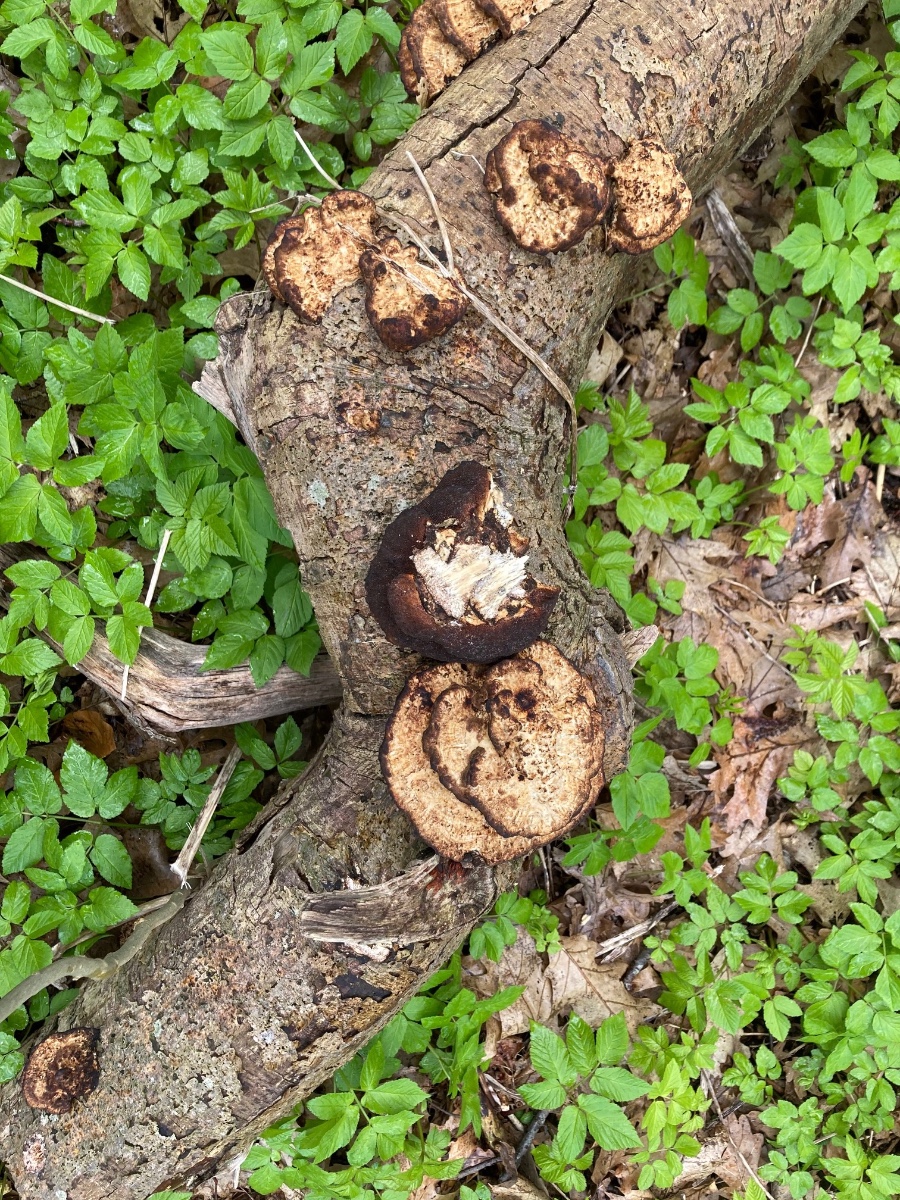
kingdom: Fungi
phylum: Basidiomycota
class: Agaricomycetes
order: Polyporales
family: Polyporaceae
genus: Daedaleopsis
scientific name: Daedaleopsis confragosa
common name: rødmende læderporesvamp
